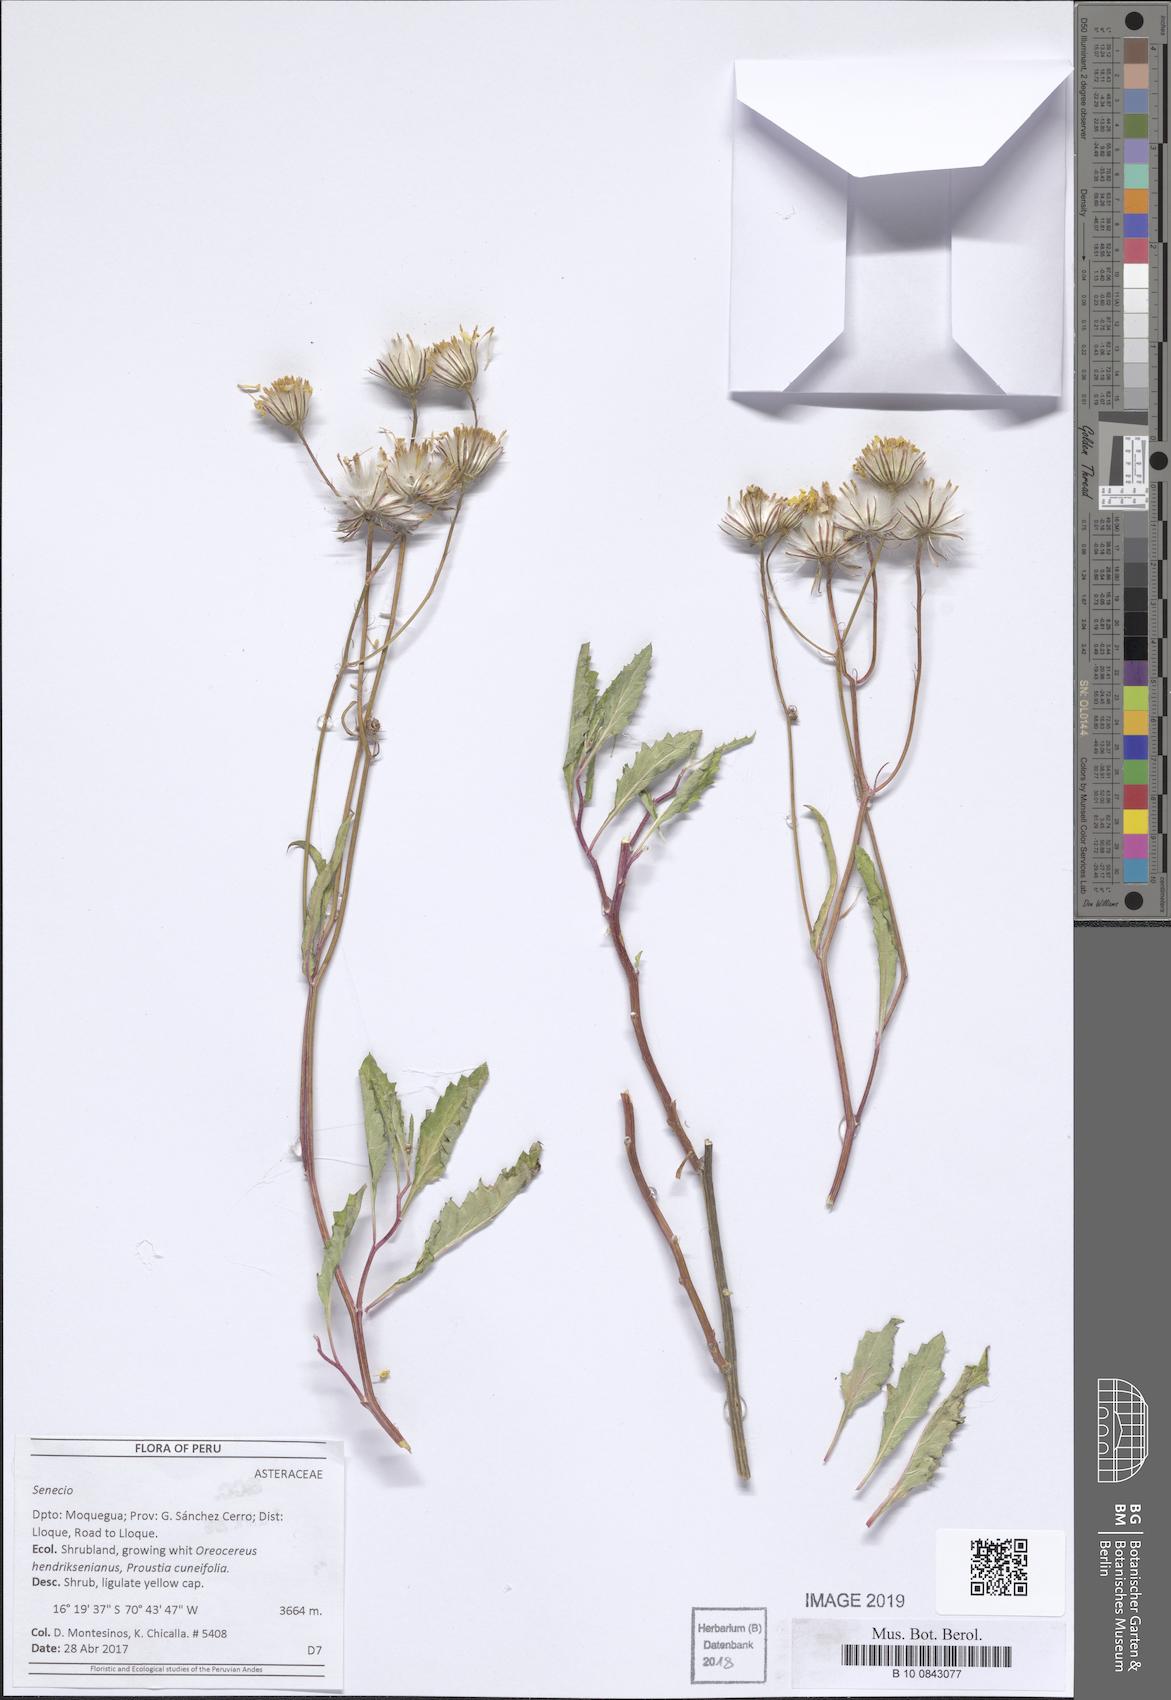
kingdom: Plantae
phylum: Tracheophyta
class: Magnoliopsida
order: Asterales
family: Asteraceae
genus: Lomanthus
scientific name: Lomanthus tovarii
